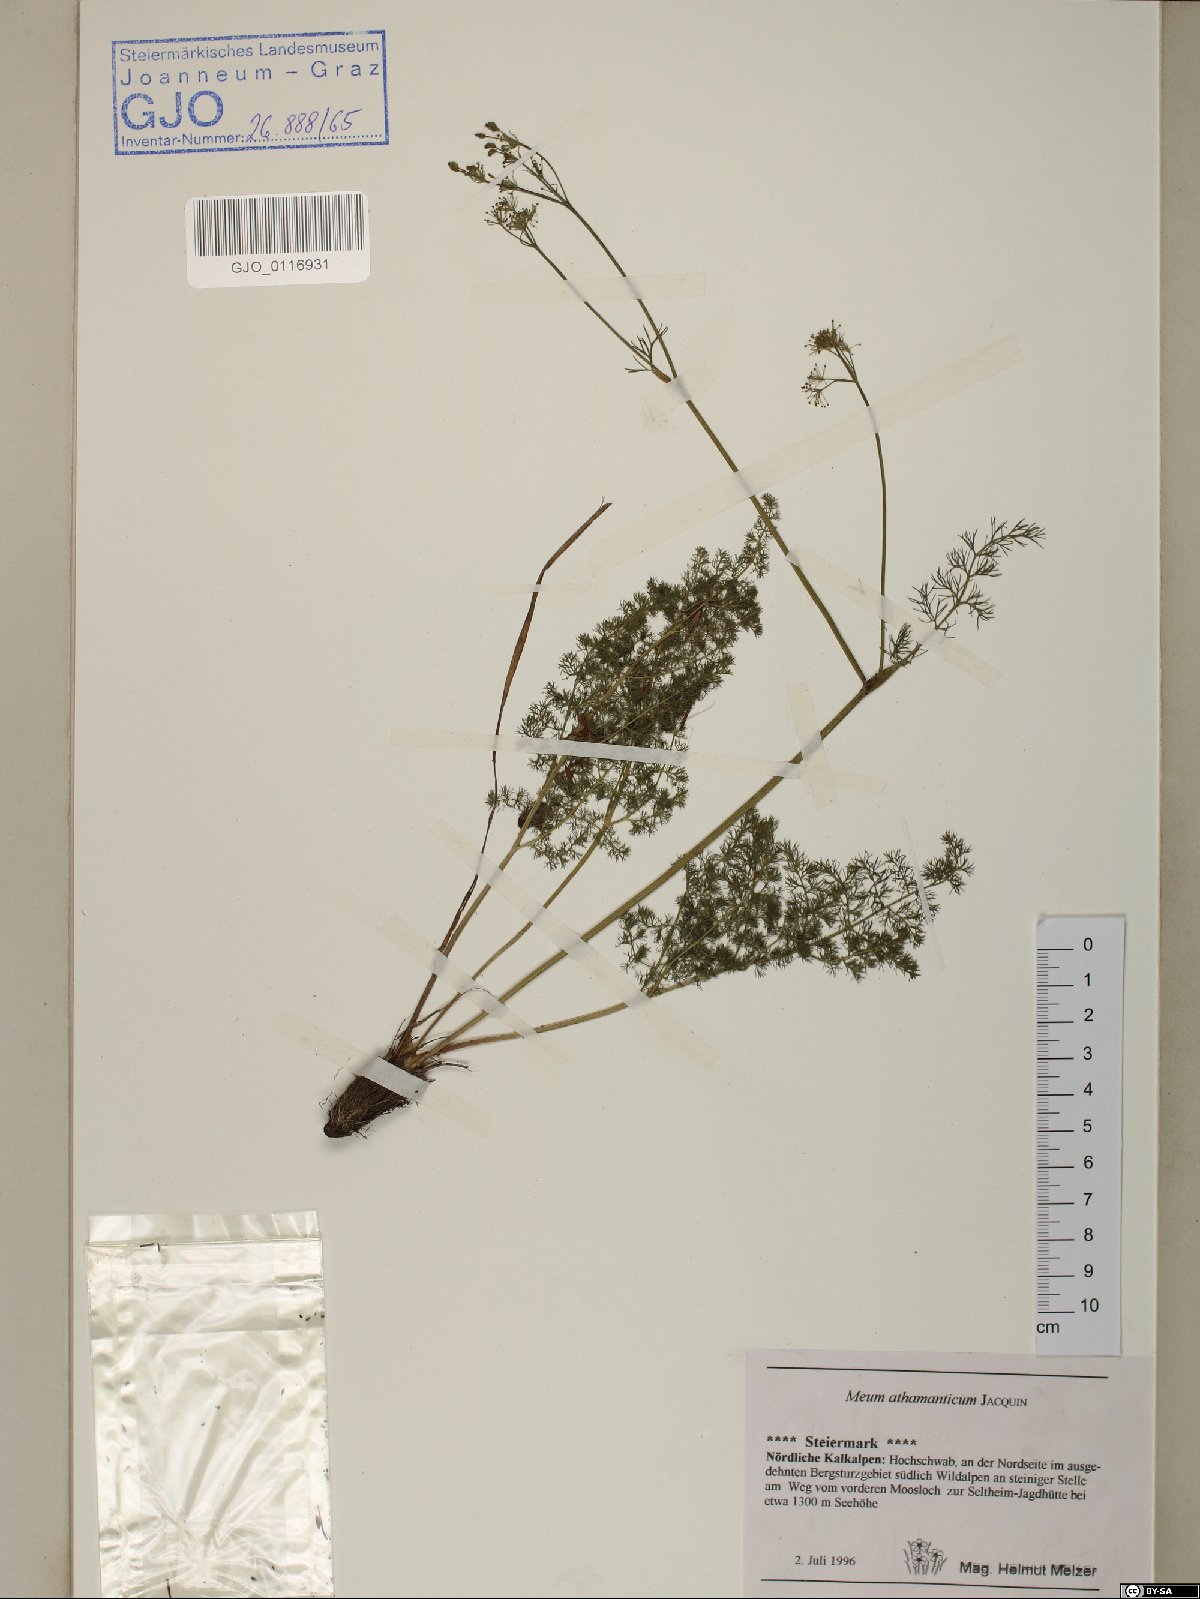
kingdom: Plantae
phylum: Tracheophyta
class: Magnoliopsida
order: Apiales
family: Apiaceae
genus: Meum
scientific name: Meum athamanticum
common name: Spignel
